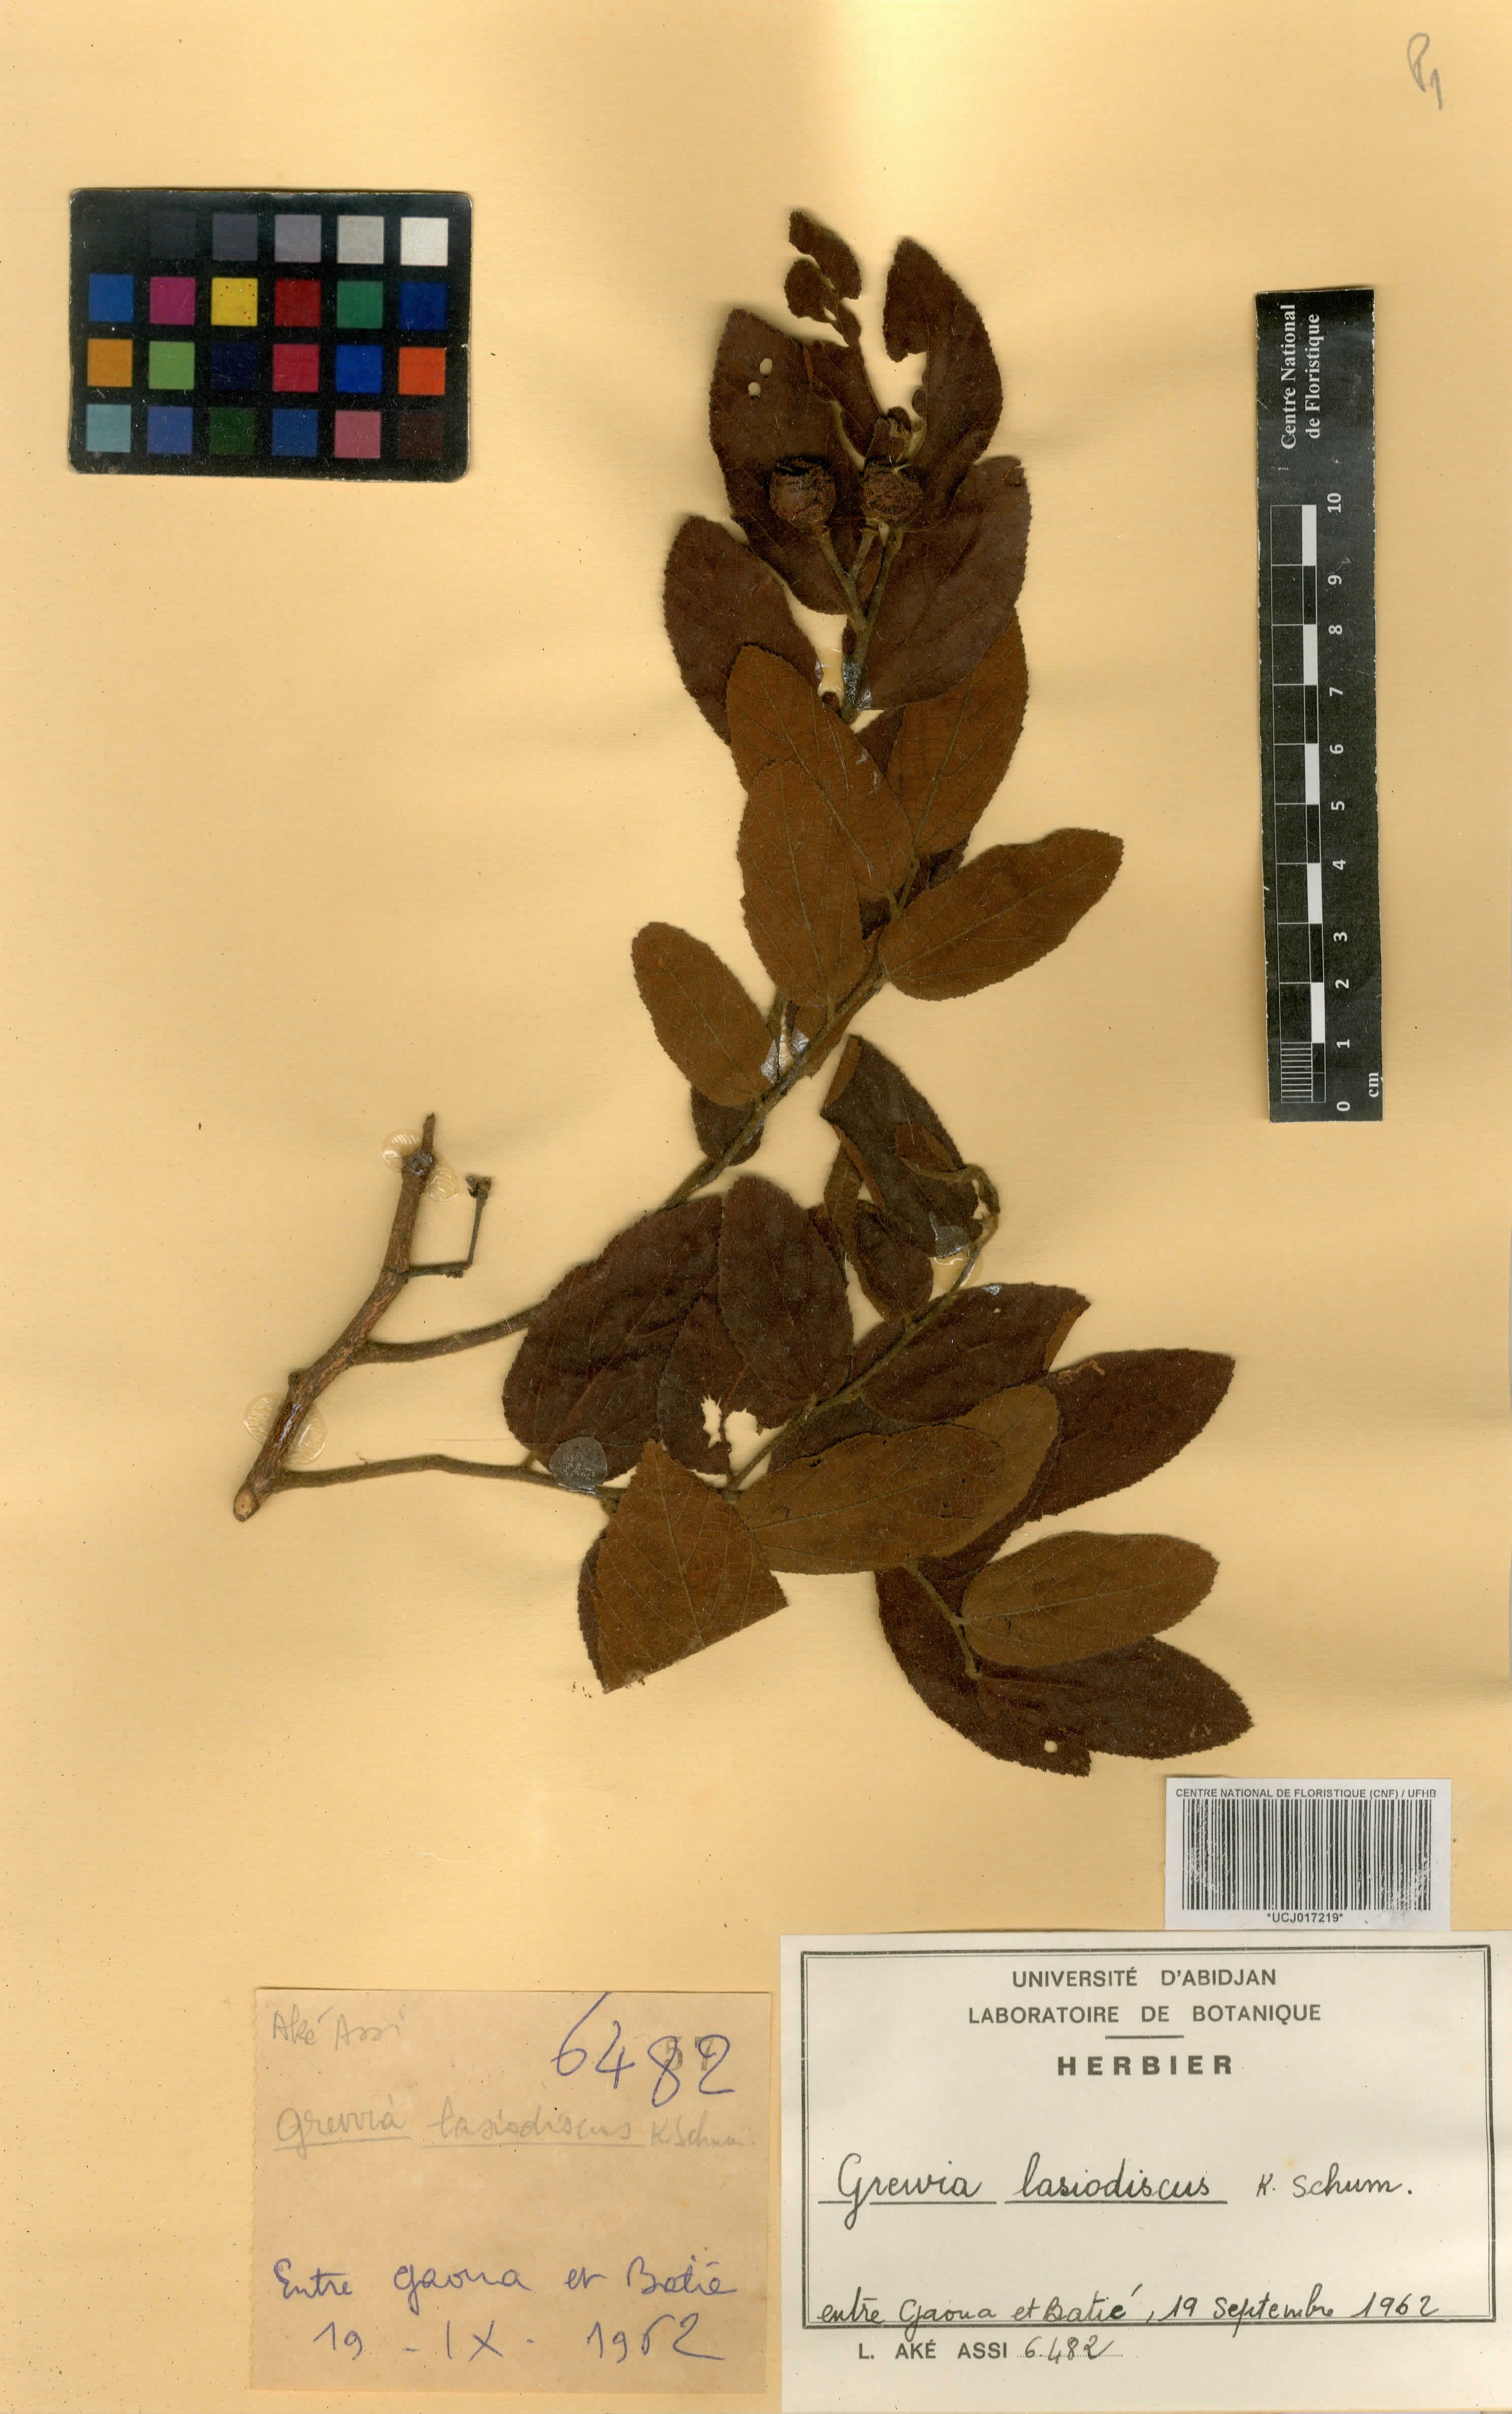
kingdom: Plantae
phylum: Tracheophyta
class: Magnoliopsida
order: Malvales
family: Malvaceae
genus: Grewia
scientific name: Grewia lasiodiscus
